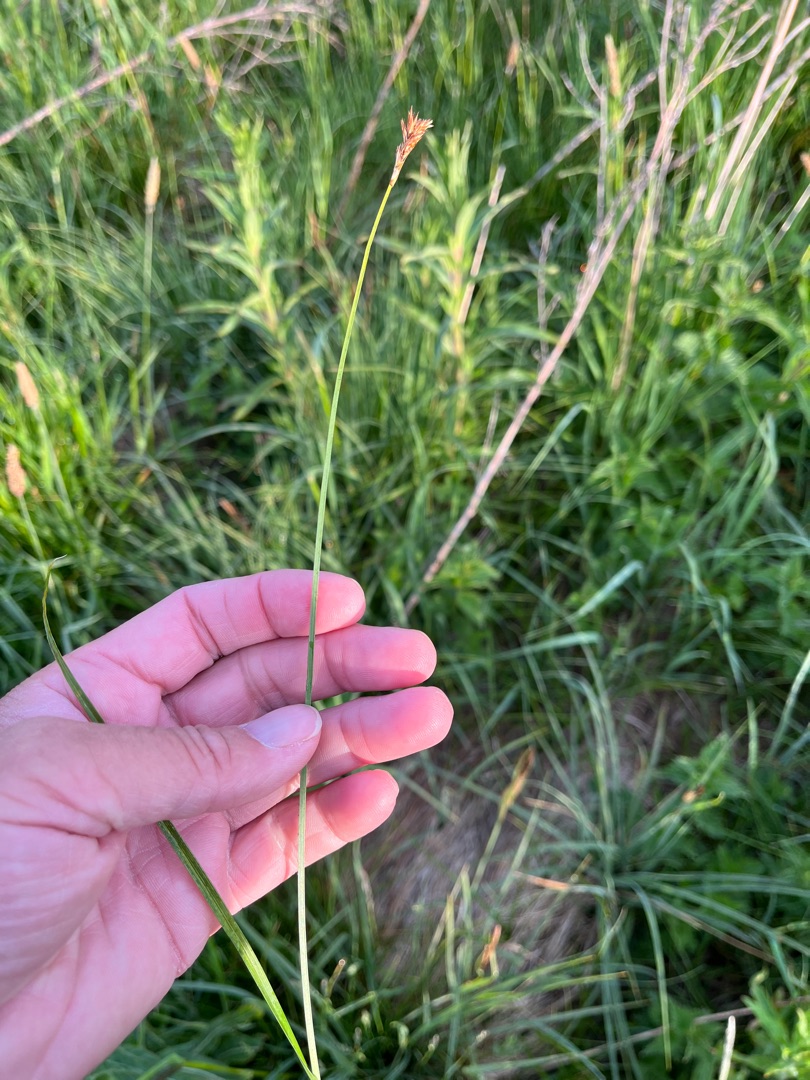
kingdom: Plantae
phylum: Tracheophyta
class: Liliopsida
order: Poales
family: Cyperaceae
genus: Carex
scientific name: Carex disticha
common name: Toradet star
